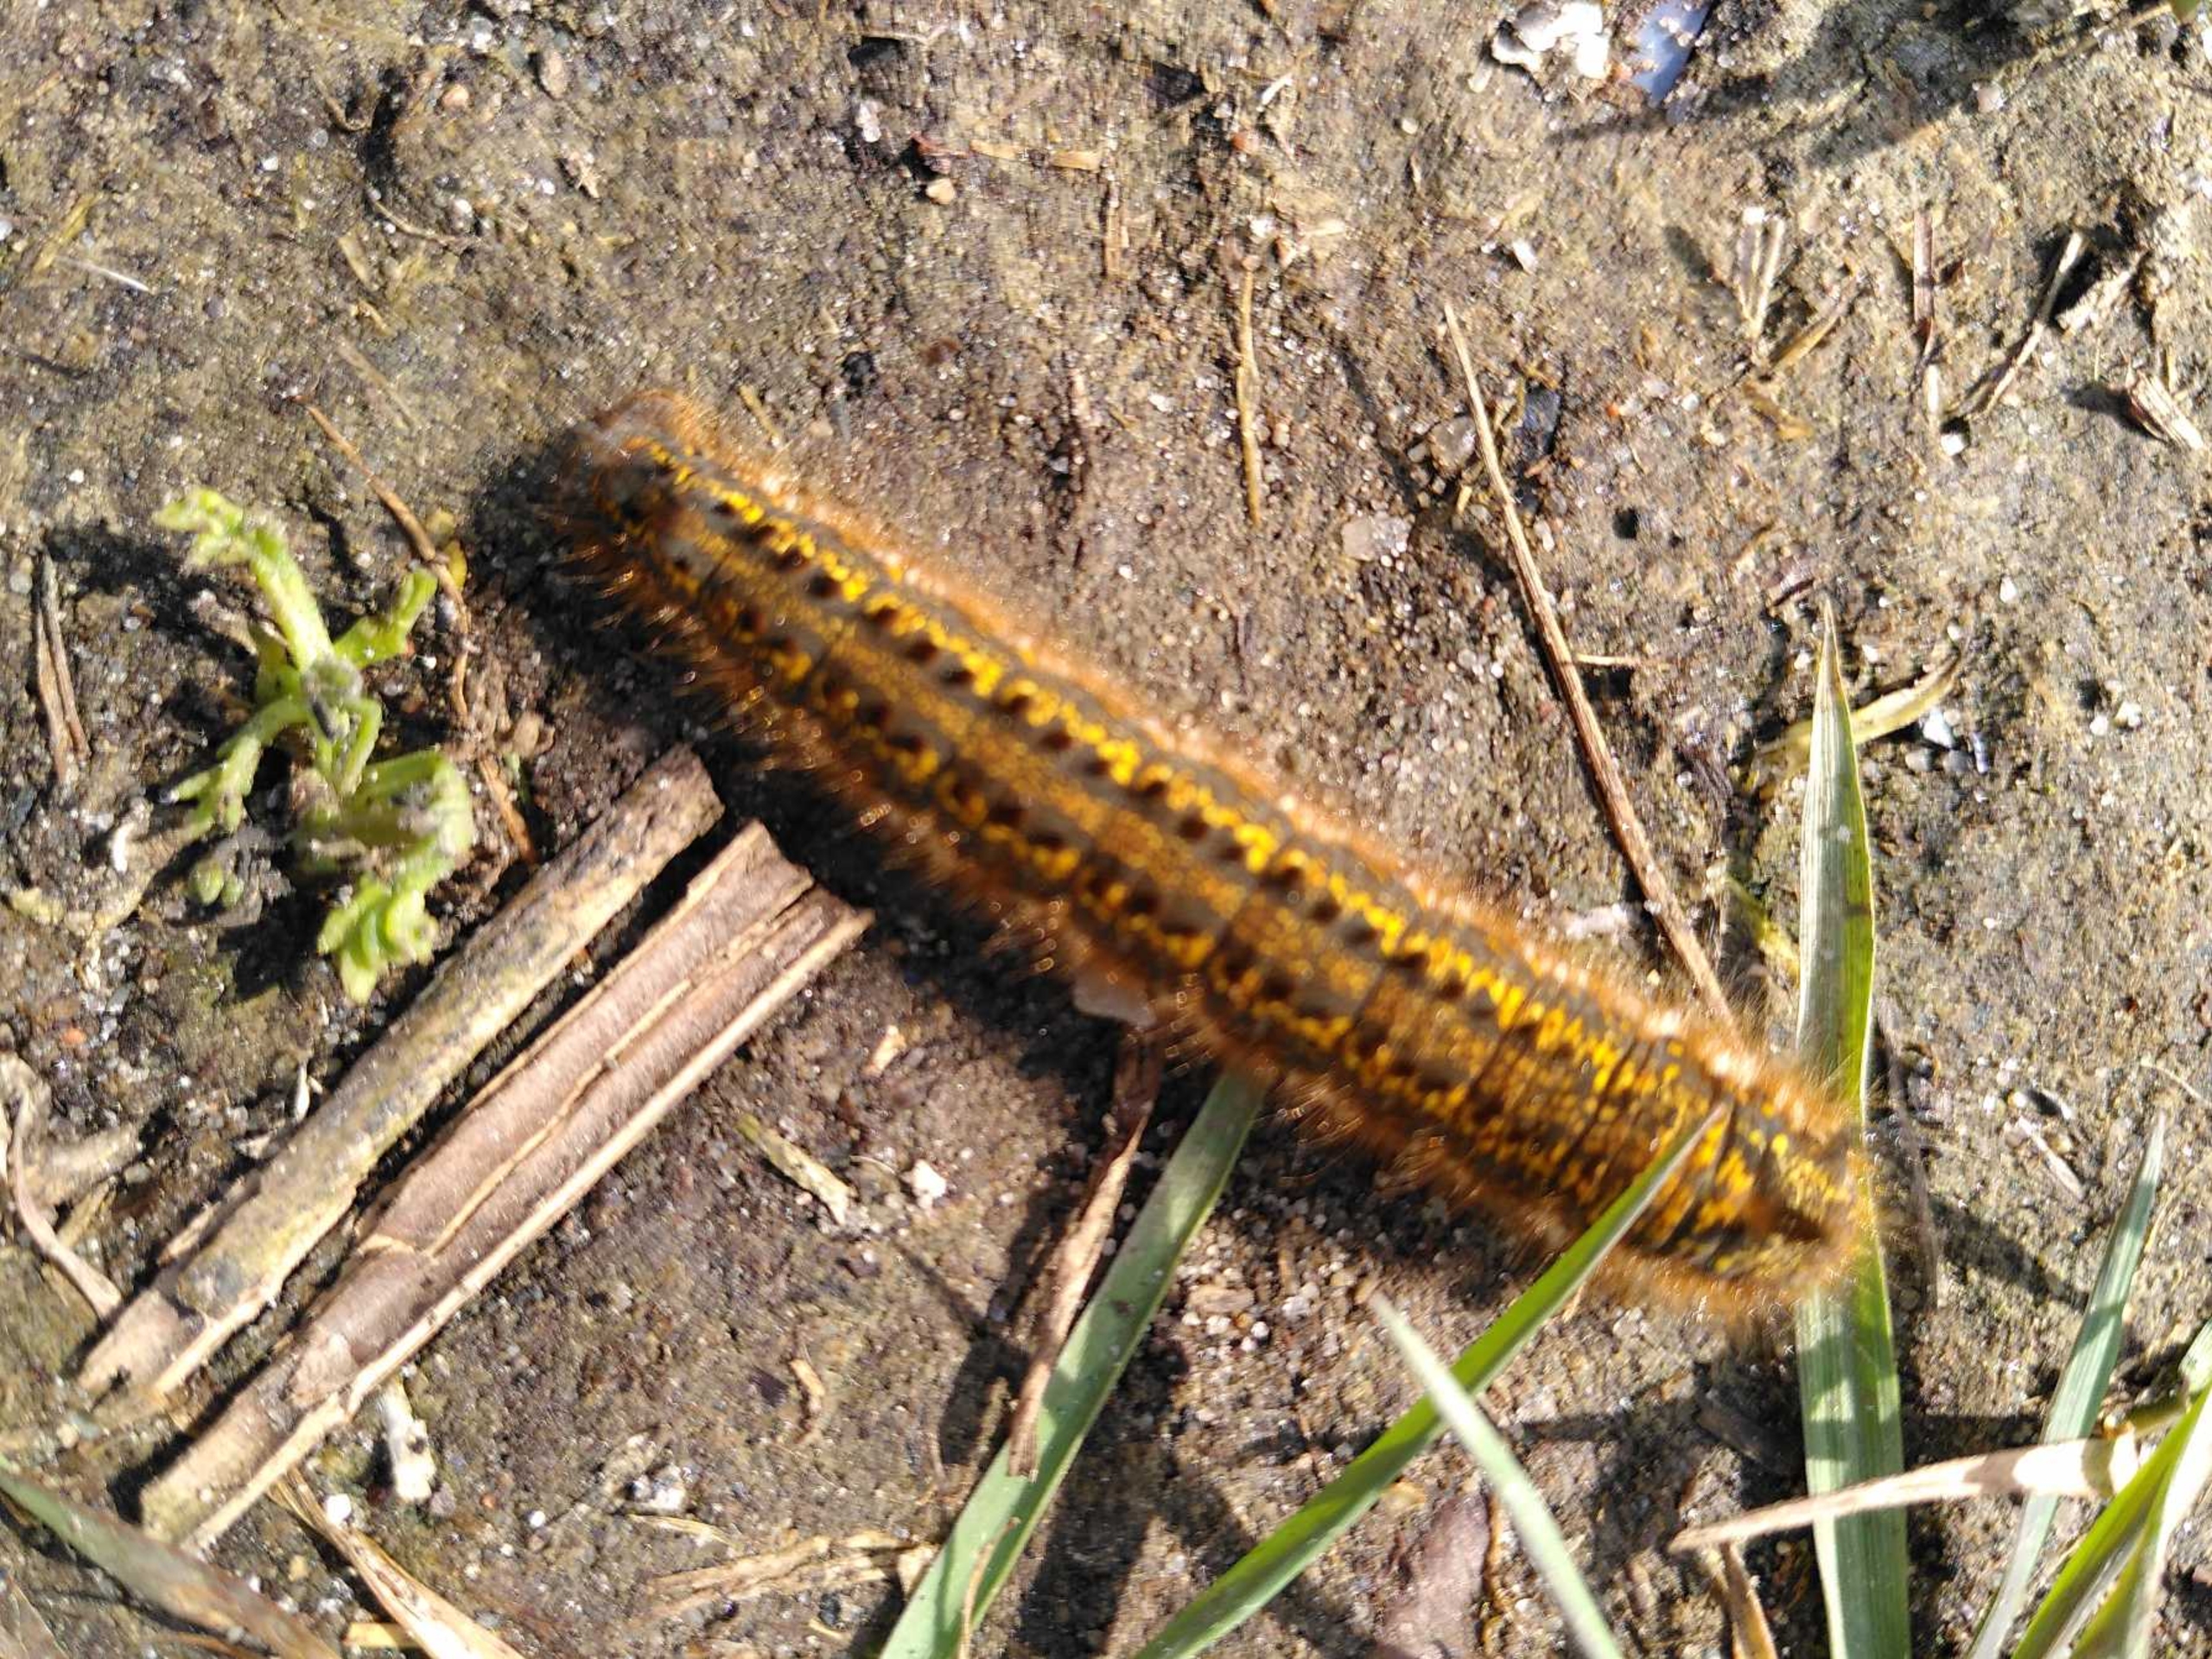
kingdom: Animalia
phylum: Arthropoda
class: Insecta
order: Lepidoptera
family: Lasiocampidae
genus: Euthrix
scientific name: Euthrix potatoria
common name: Græsspinder
